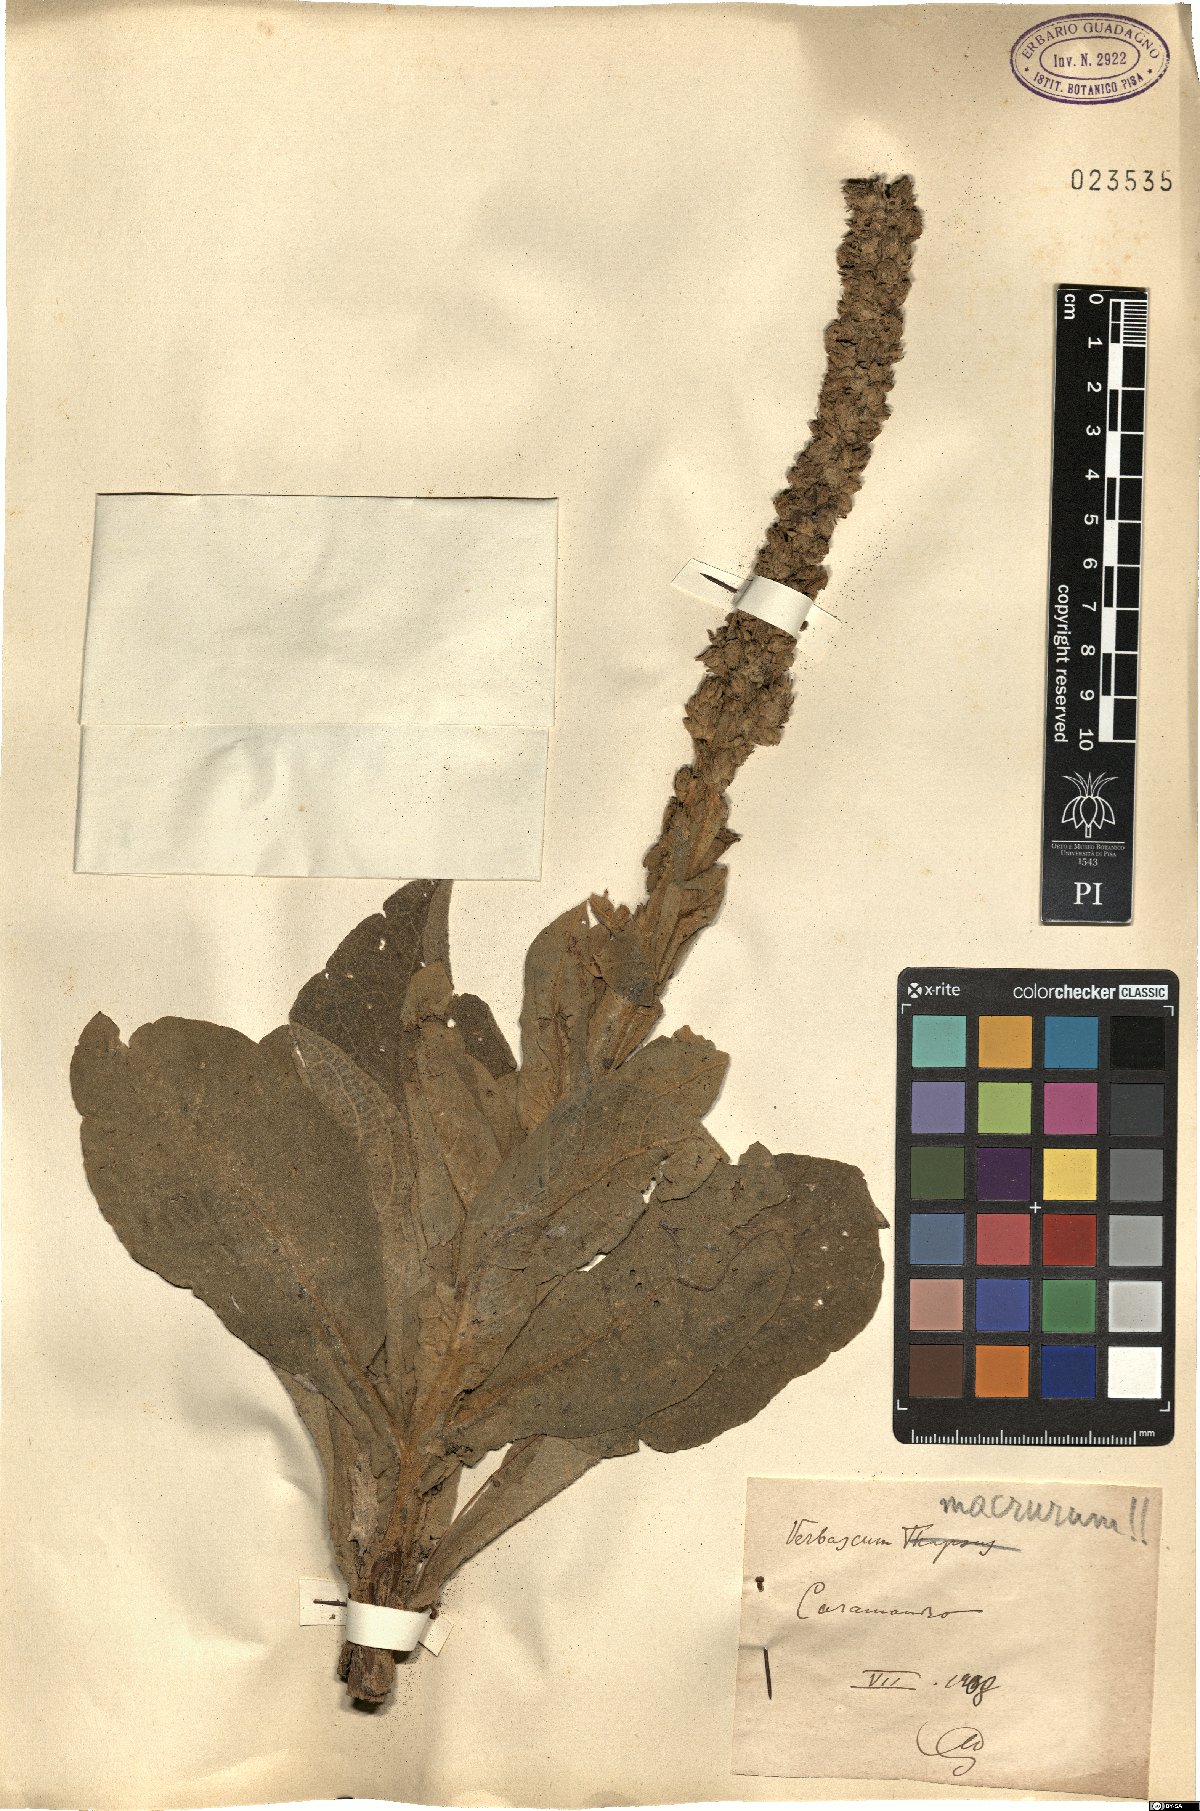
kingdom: Plantae
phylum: Tracheophyta
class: Magnoliopsida
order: Lamiales
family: Scrophulariaceae
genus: Verbascum
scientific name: Verbascum macrurum
